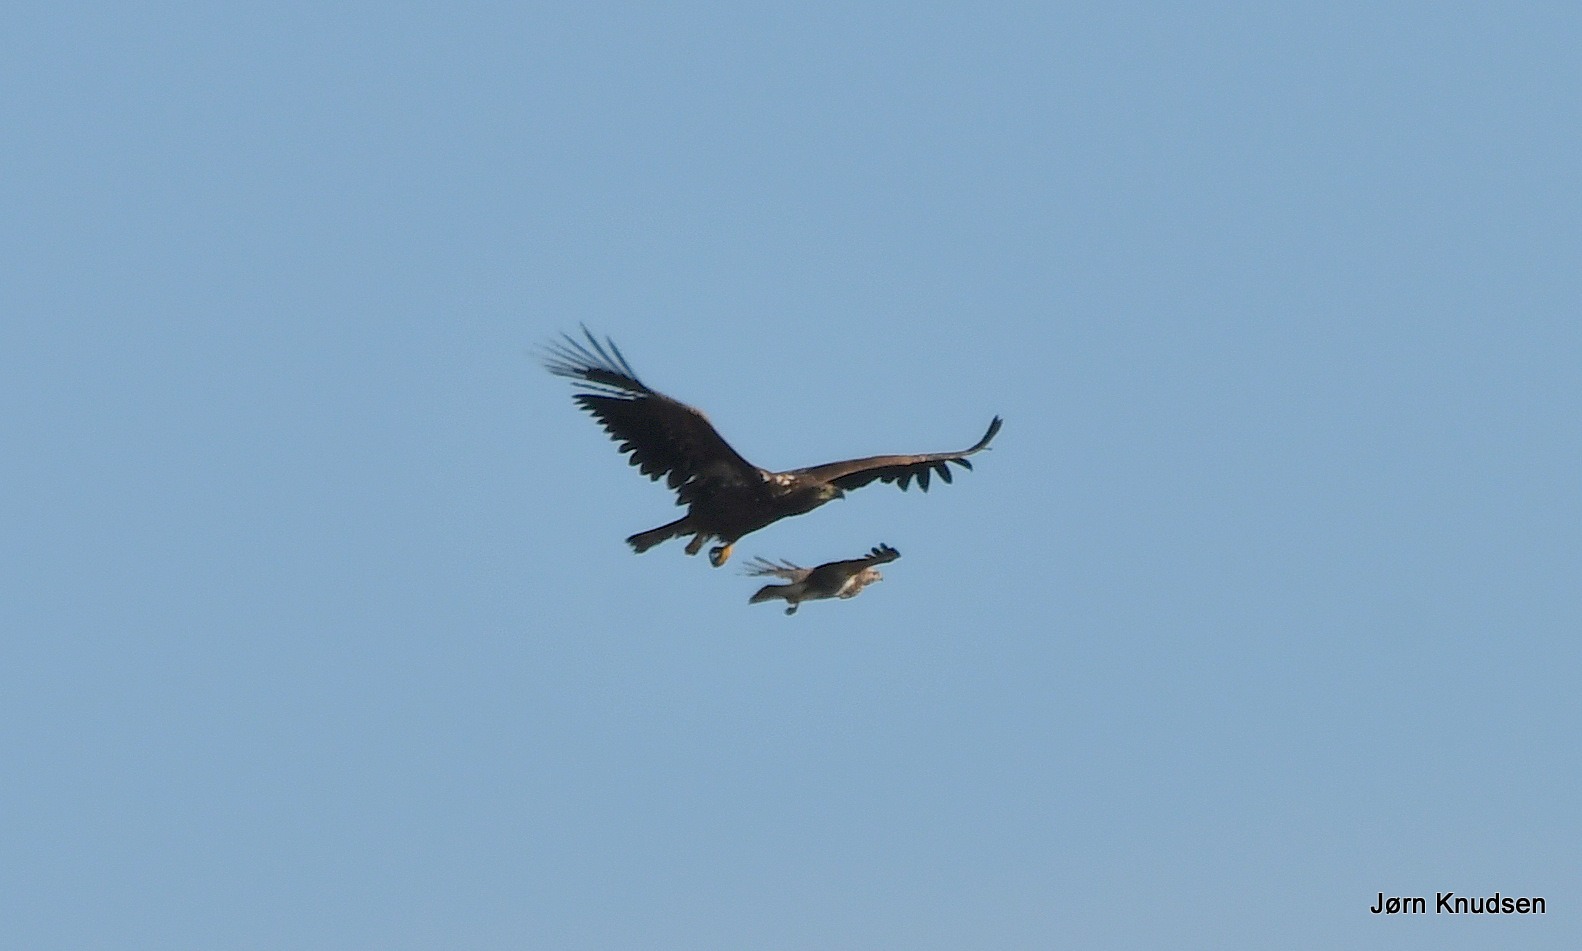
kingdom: Animalia
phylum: Chordata
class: Aves
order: Accipitriformes
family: Accipitridae
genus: Haliaeetus
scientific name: Haliaeetus albicilla
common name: Havørn
